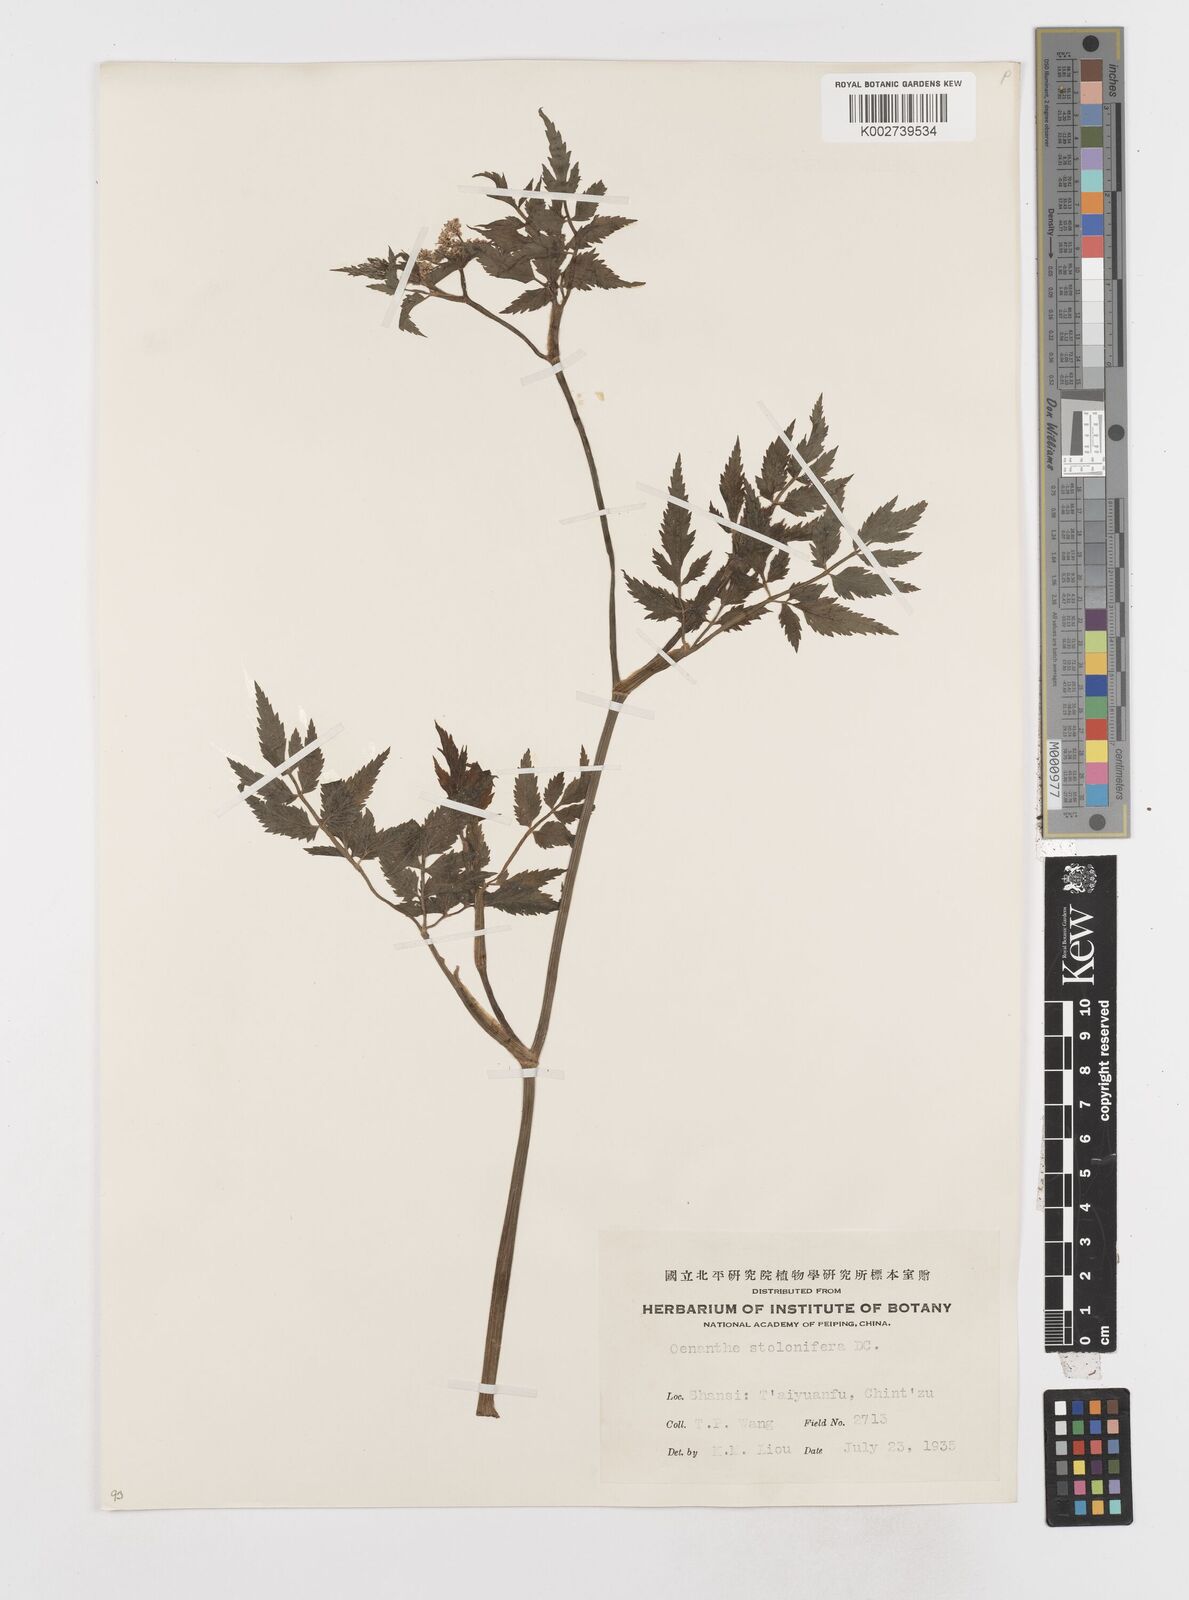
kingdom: Plantae
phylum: Tracheophyta
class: Magnoliopsida
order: Apiales
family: Apiaceae
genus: Oenanthe
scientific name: Oenanthe javanica
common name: Java water-dropwort
